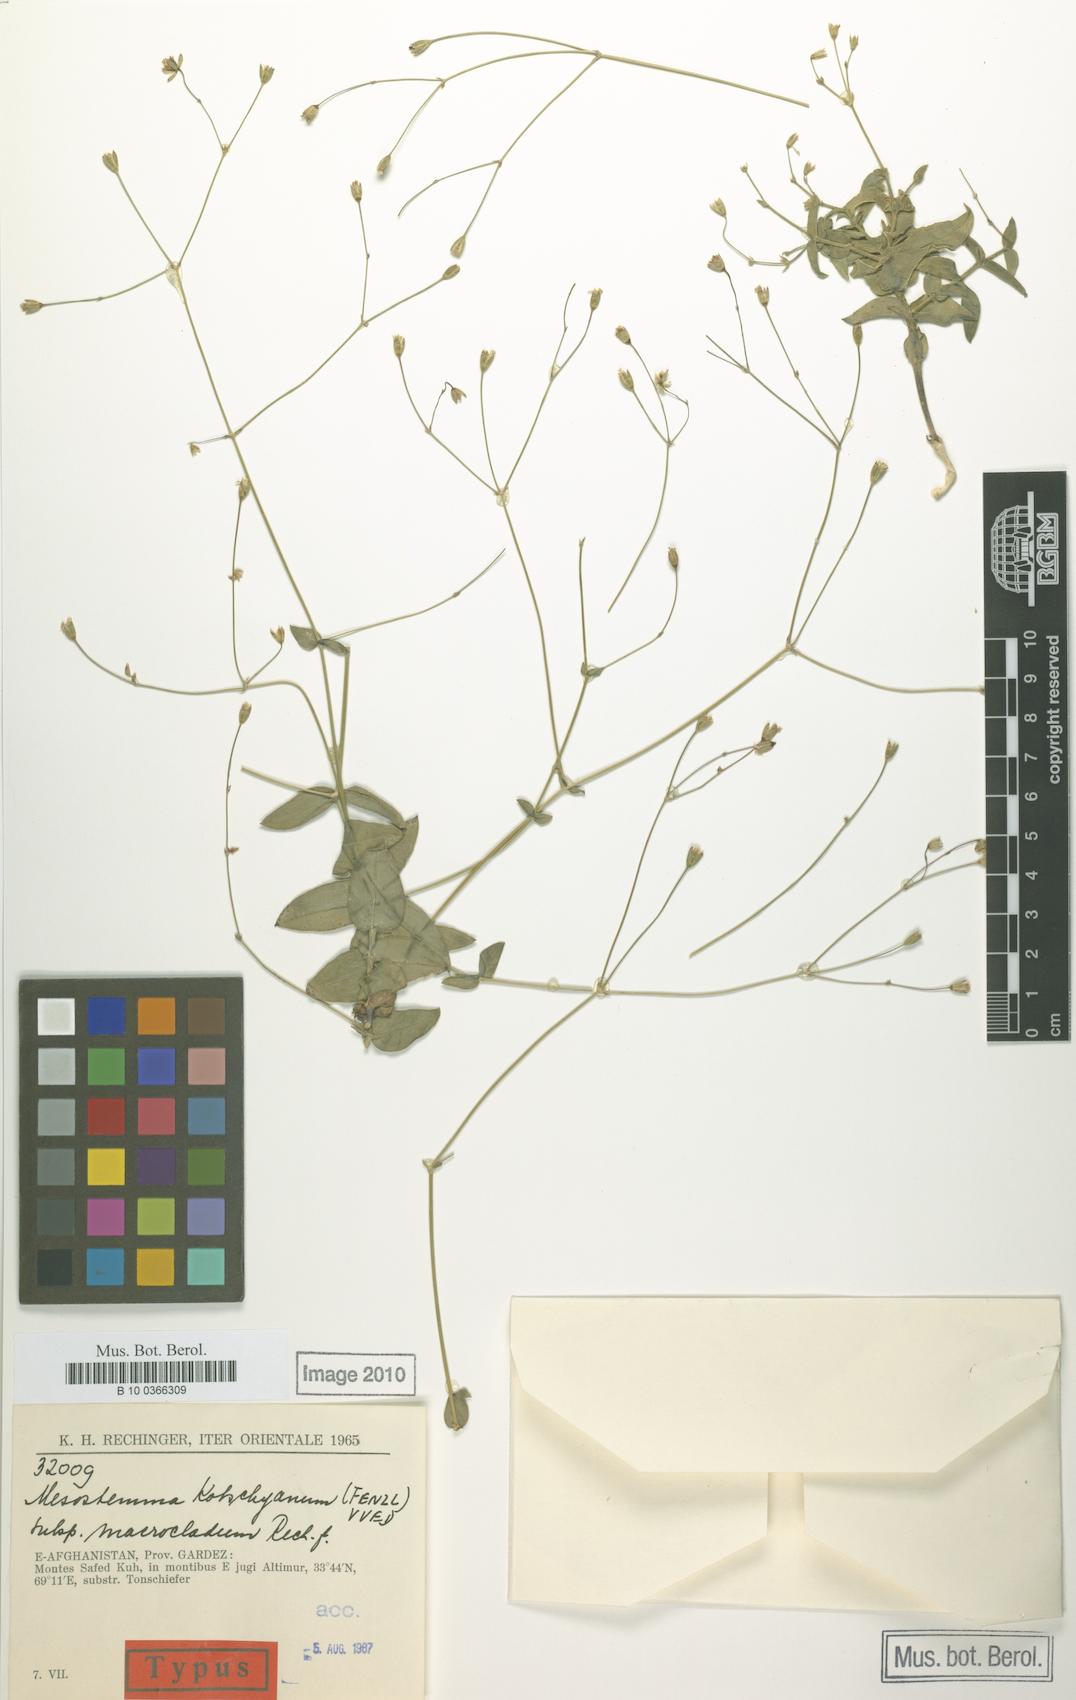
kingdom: Plantae
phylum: Tracheophyta
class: Magnoliopsida
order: Caryophyllales
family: Caryophyllaceae
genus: Mesostemma
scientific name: Mesostemma kotschyanum
